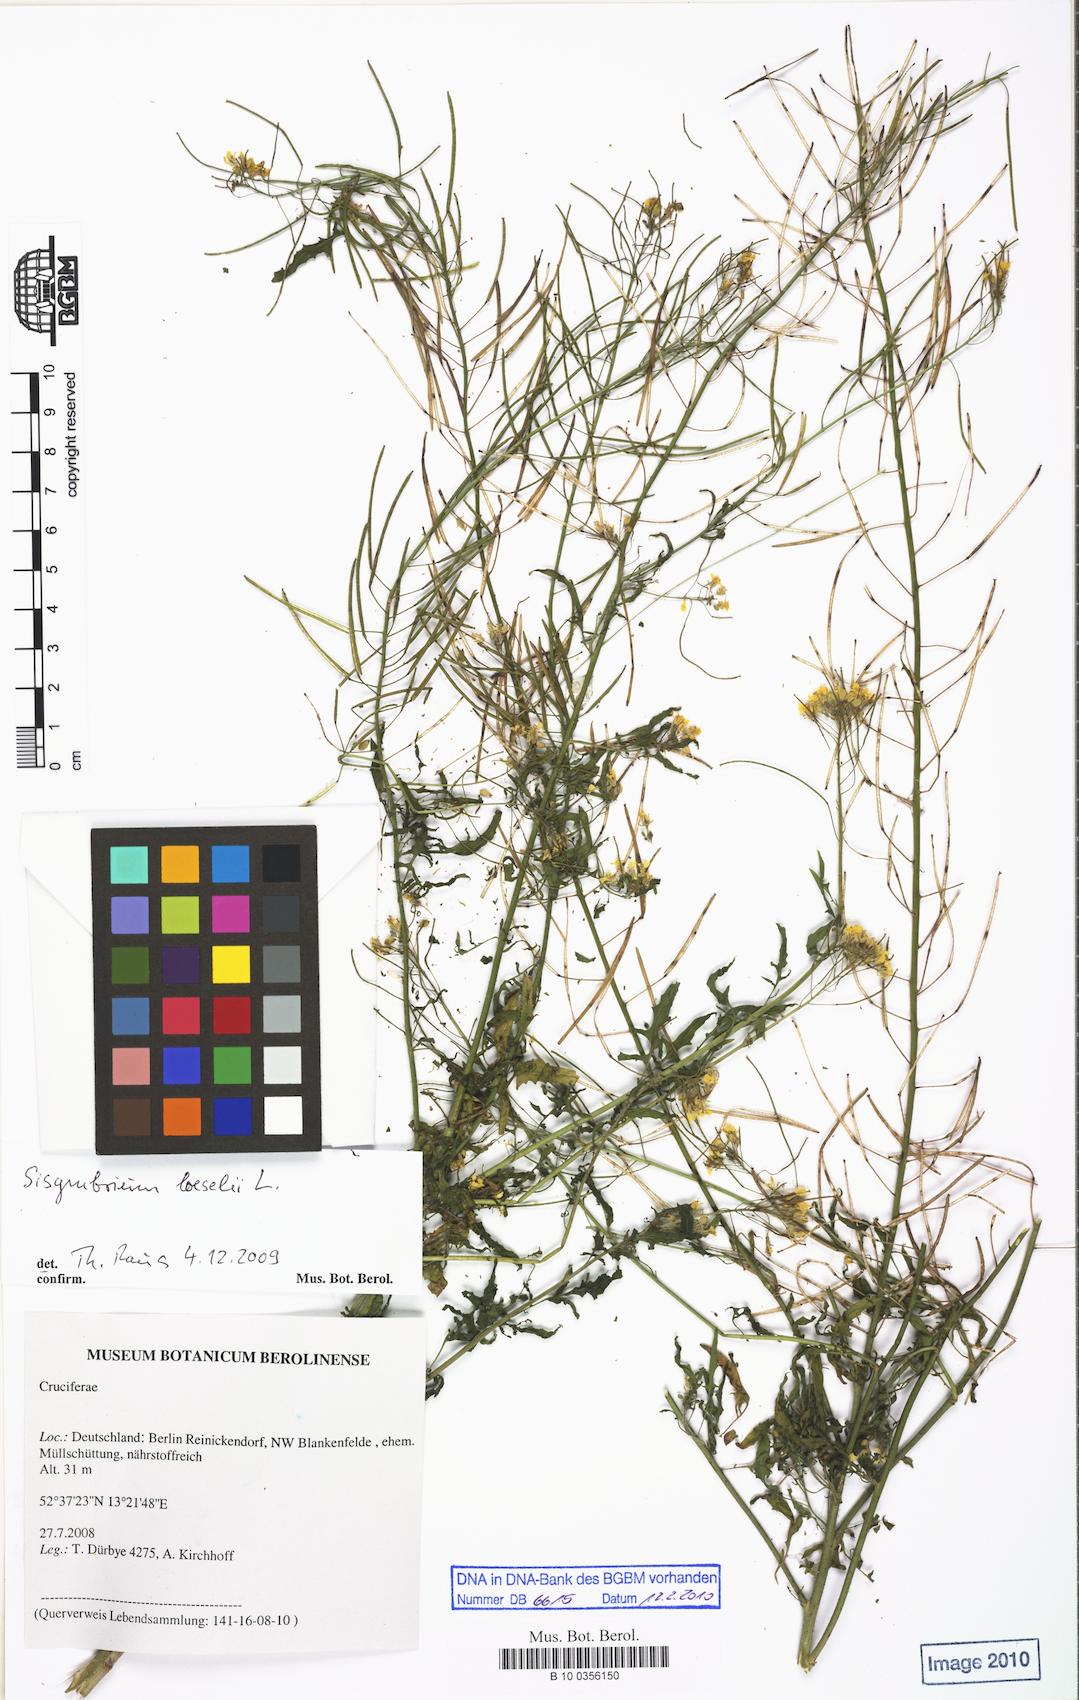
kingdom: Plantae
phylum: Tracheophyta
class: Magnoliopsida
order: Brassicales
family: Brassicaceae
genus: Sisymbrium
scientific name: Sisymbrium loeselii
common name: False london-rocket
